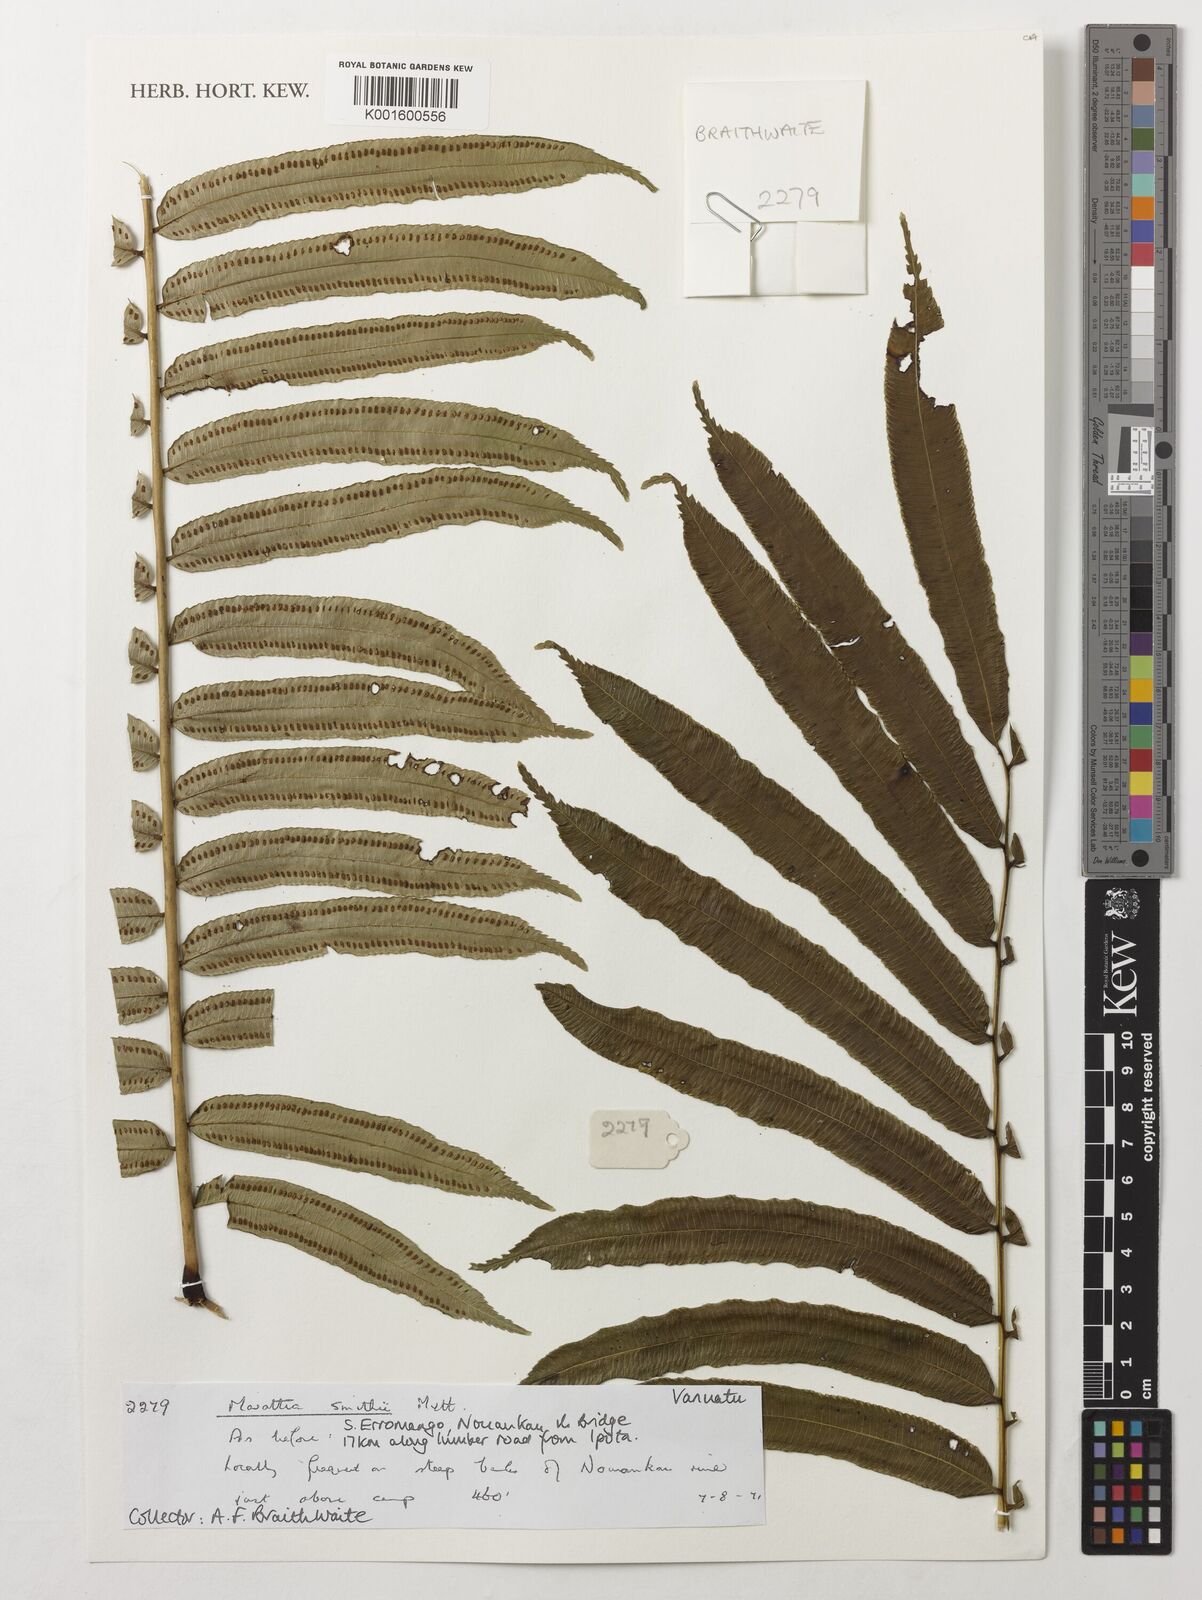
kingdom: Plantae
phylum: Tracheophyta
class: Polypodiopsida
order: Marattiales
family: Marattiaceae
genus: Ptisana
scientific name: Ptisana smithii
